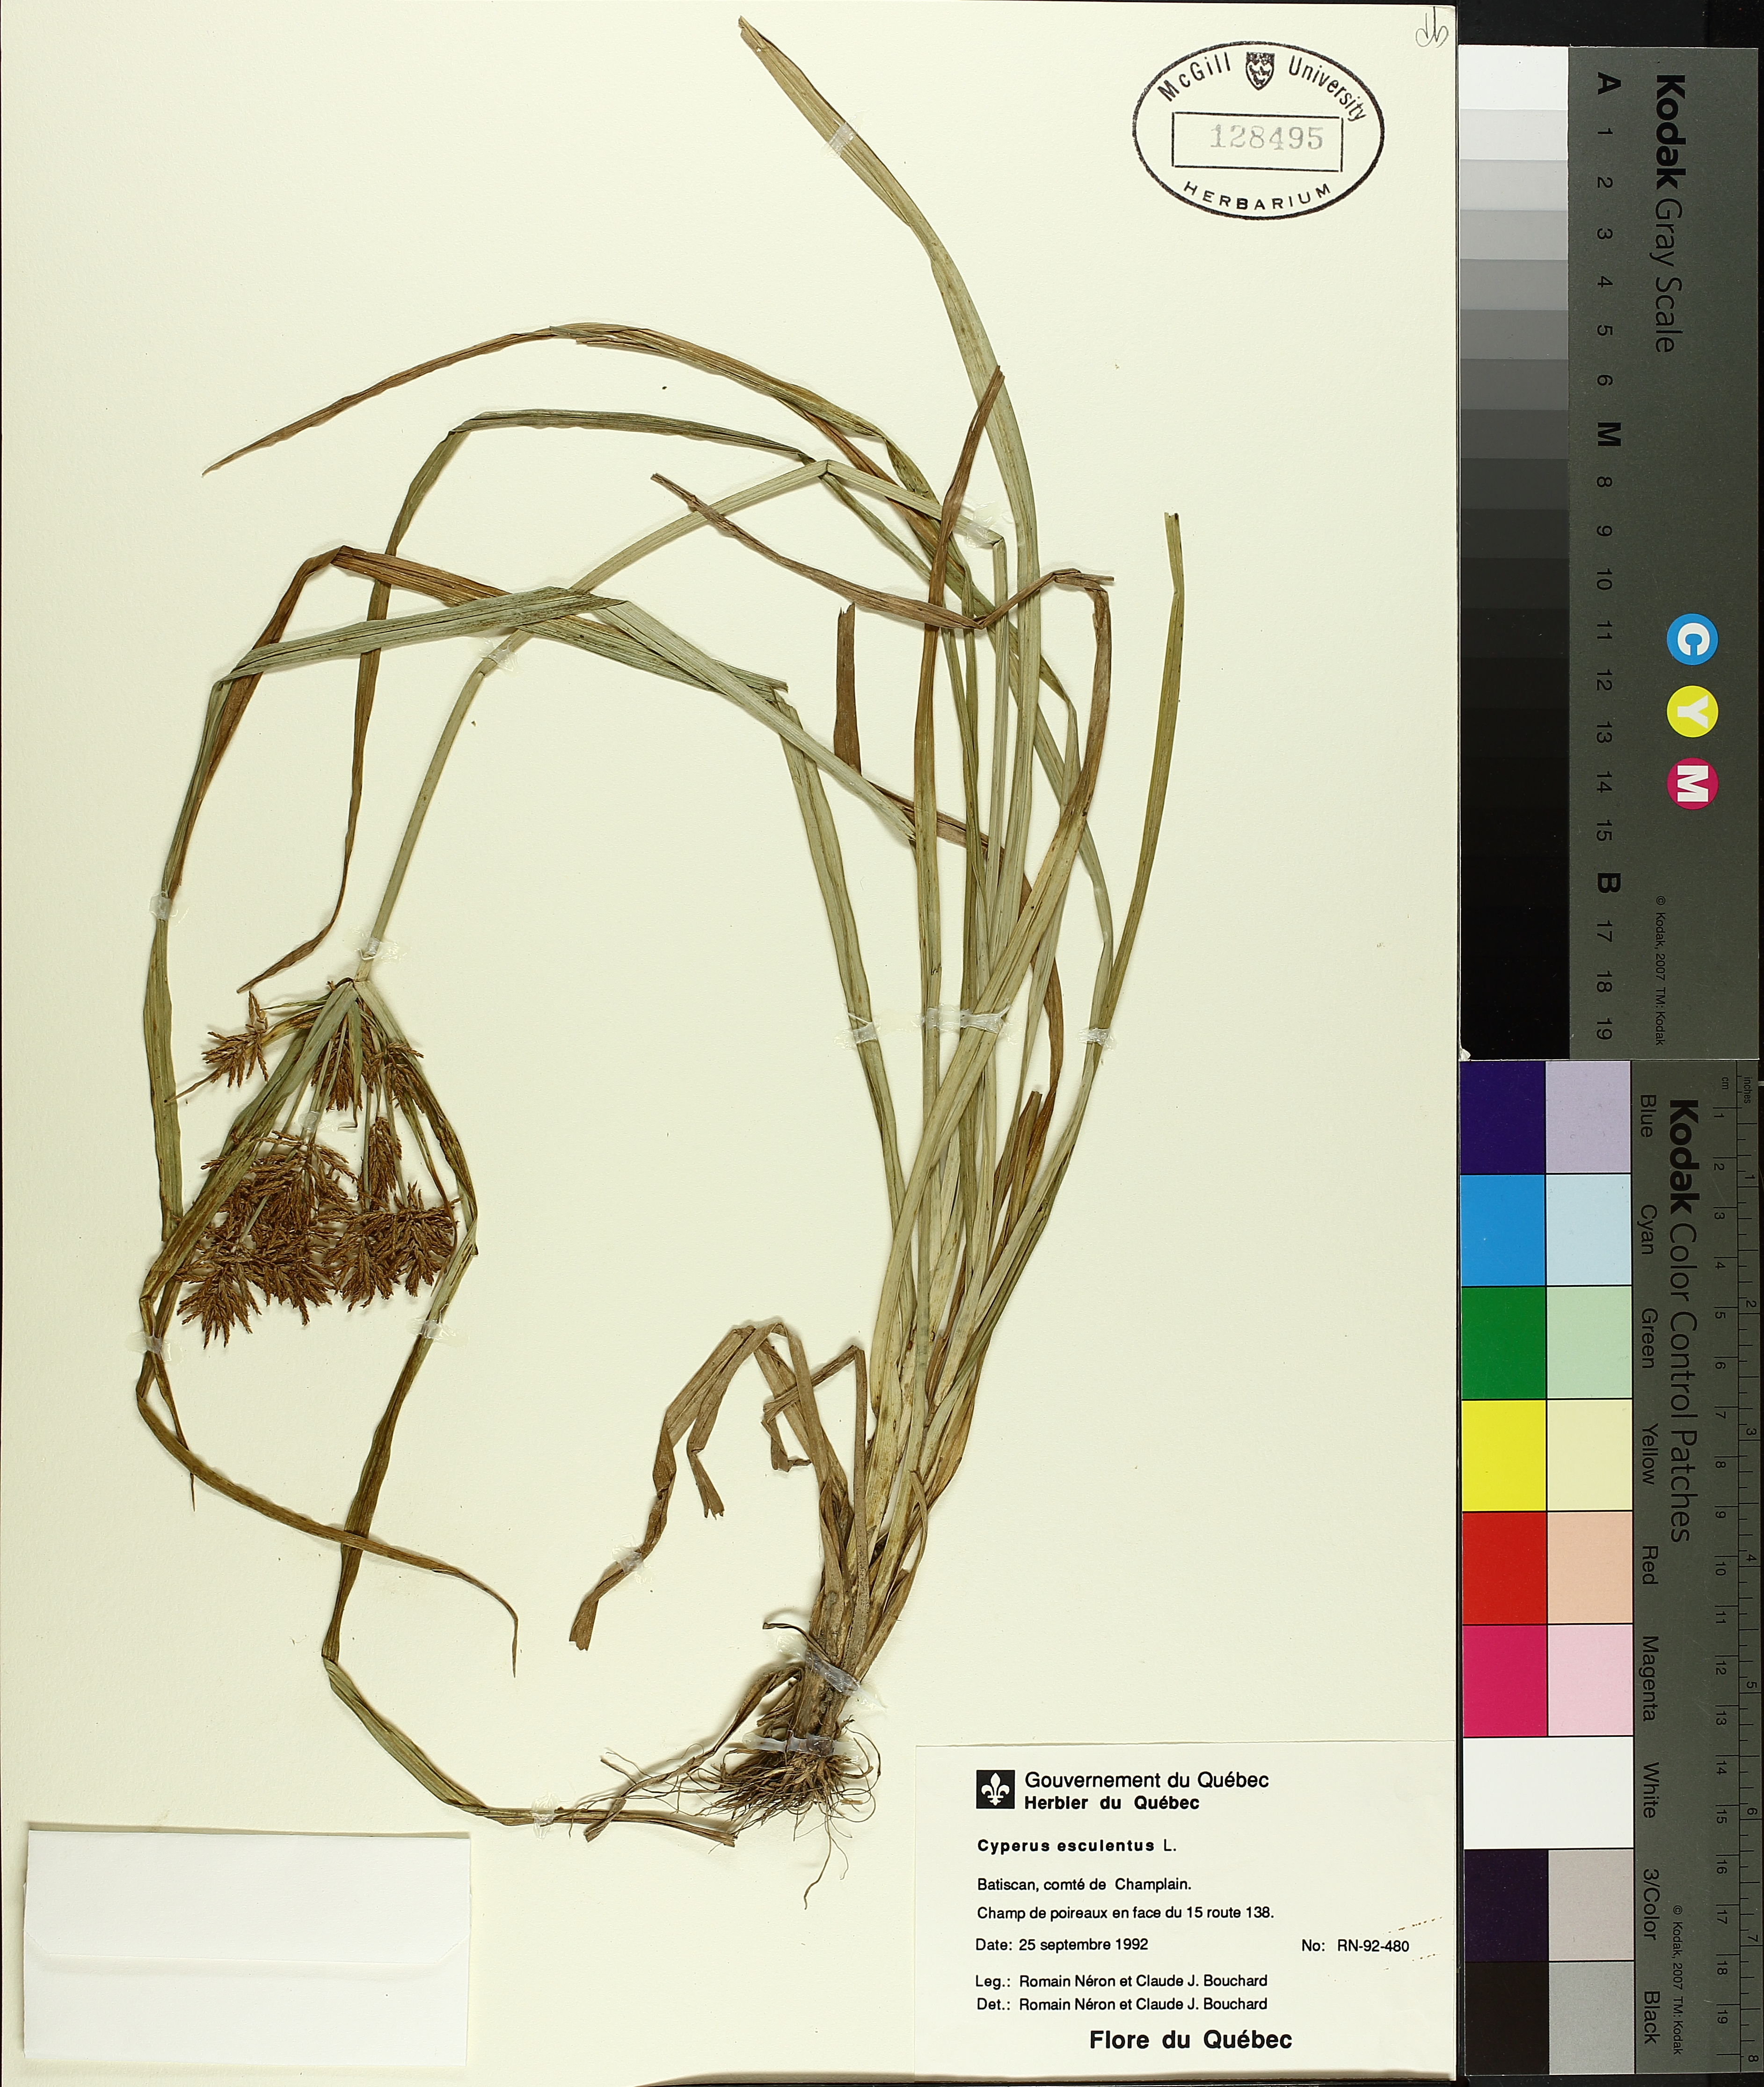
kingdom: Plantae
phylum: Tracheophyta
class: Liliopsida
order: Poales
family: Cyperaceae
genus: Cyperus
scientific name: Cyperus esculentus
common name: Yellow nutsedge
